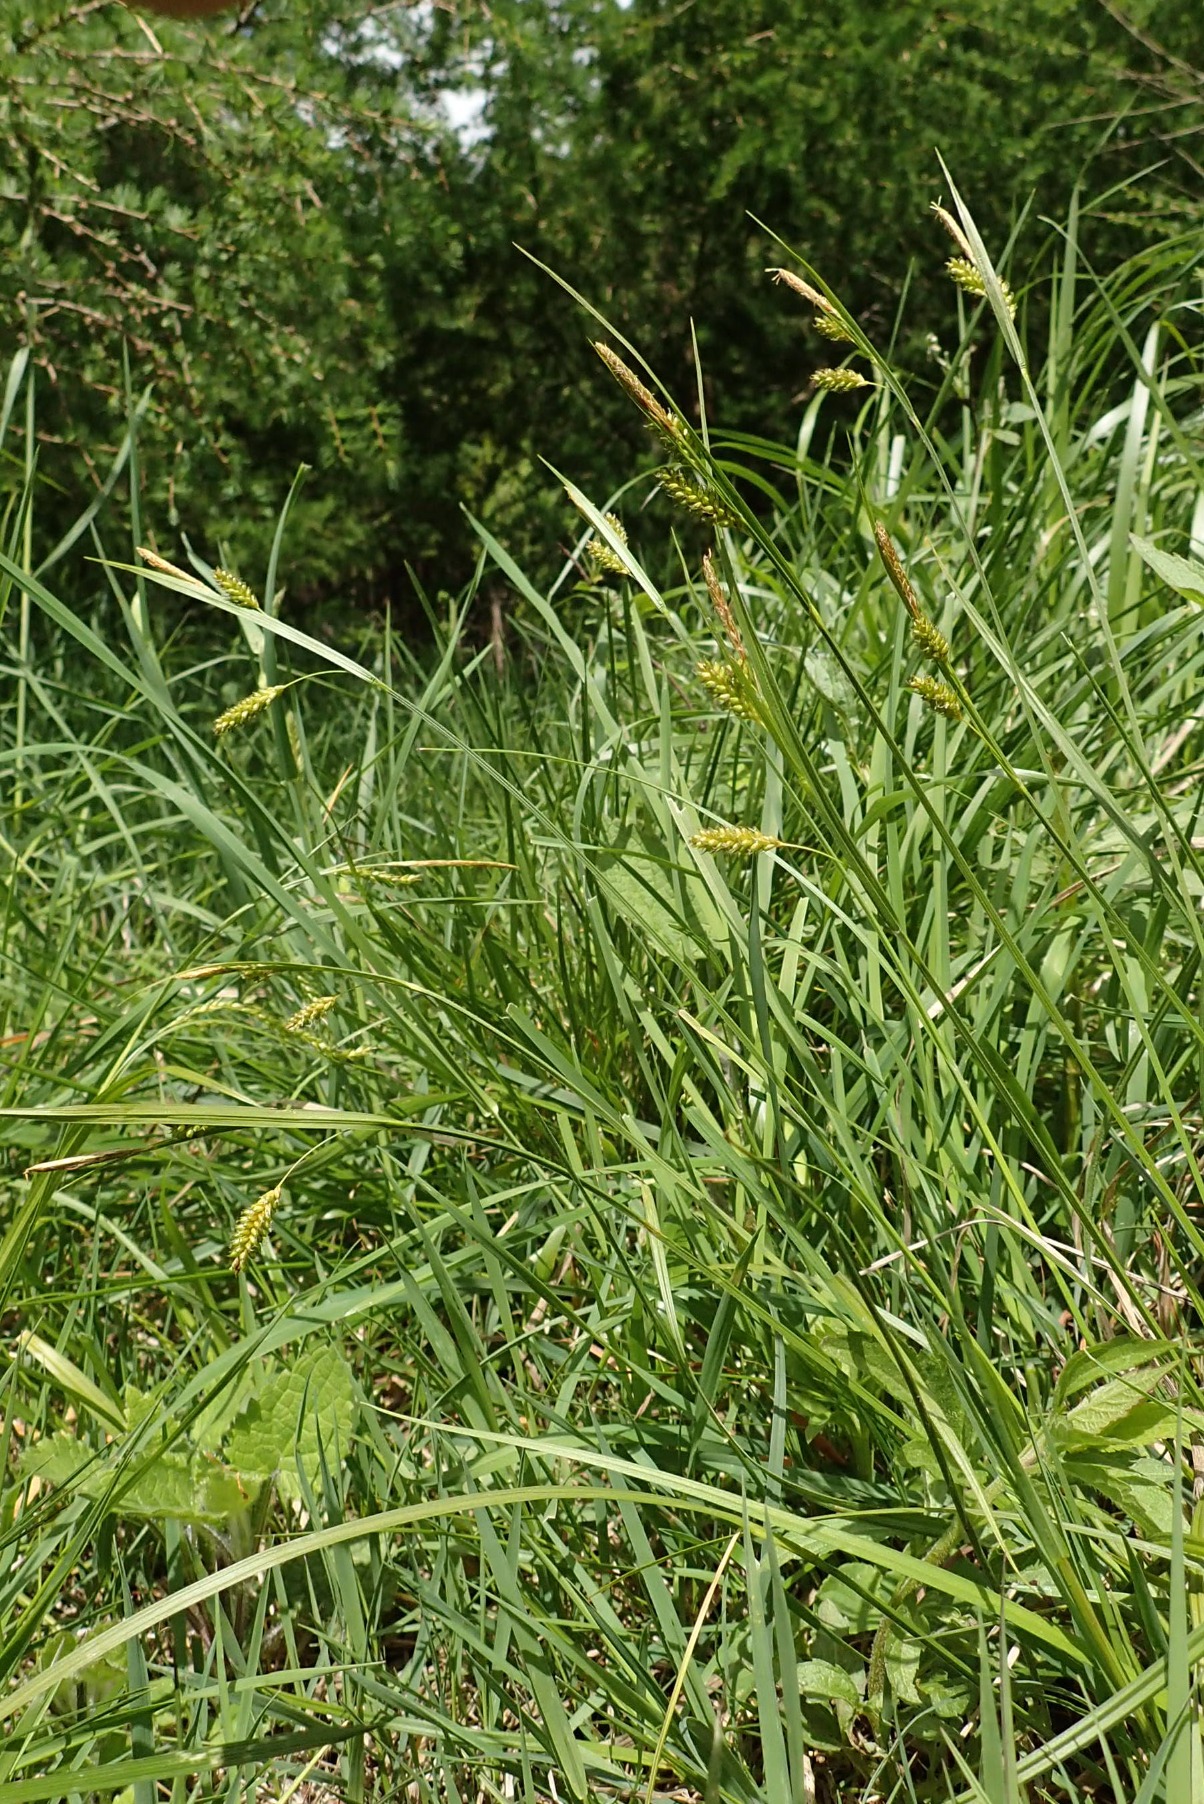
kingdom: Plantae
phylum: Tracheophyta
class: Liliopsida
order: Poales
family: Cyperaceae
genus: Carex
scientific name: Carex pallescens
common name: Bleg star
